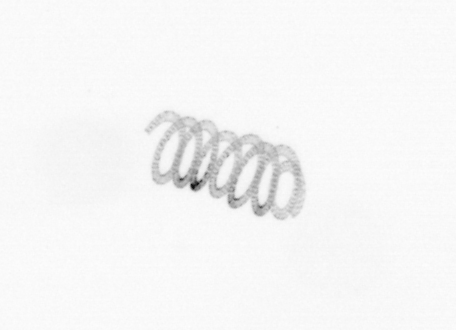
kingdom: Chromista
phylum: Ochrophyta
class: Bacillariophyceae
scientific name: Bacillariophyceae
